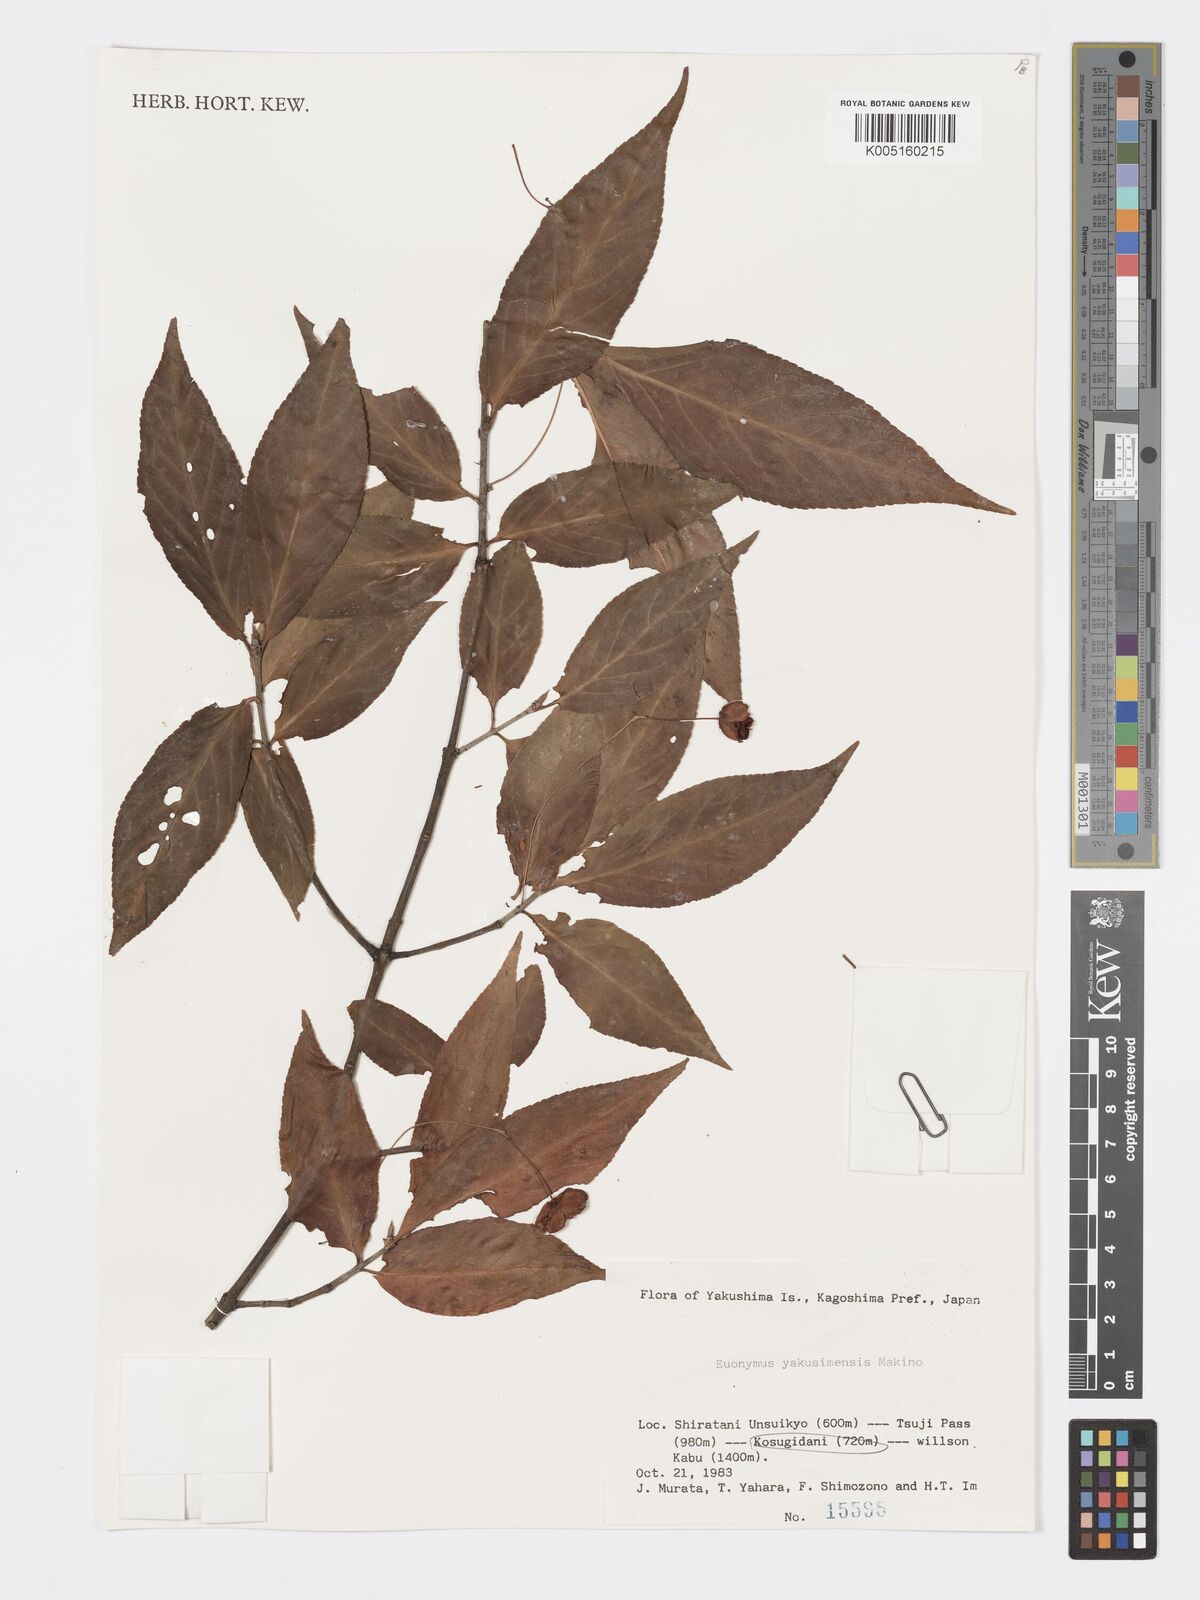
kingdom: Plantae
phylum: Tracheophyta
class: Magnoliopsida
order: Celastrales
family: Celastraceae
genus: Euonymus
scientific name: Euonymus yakushimensis
